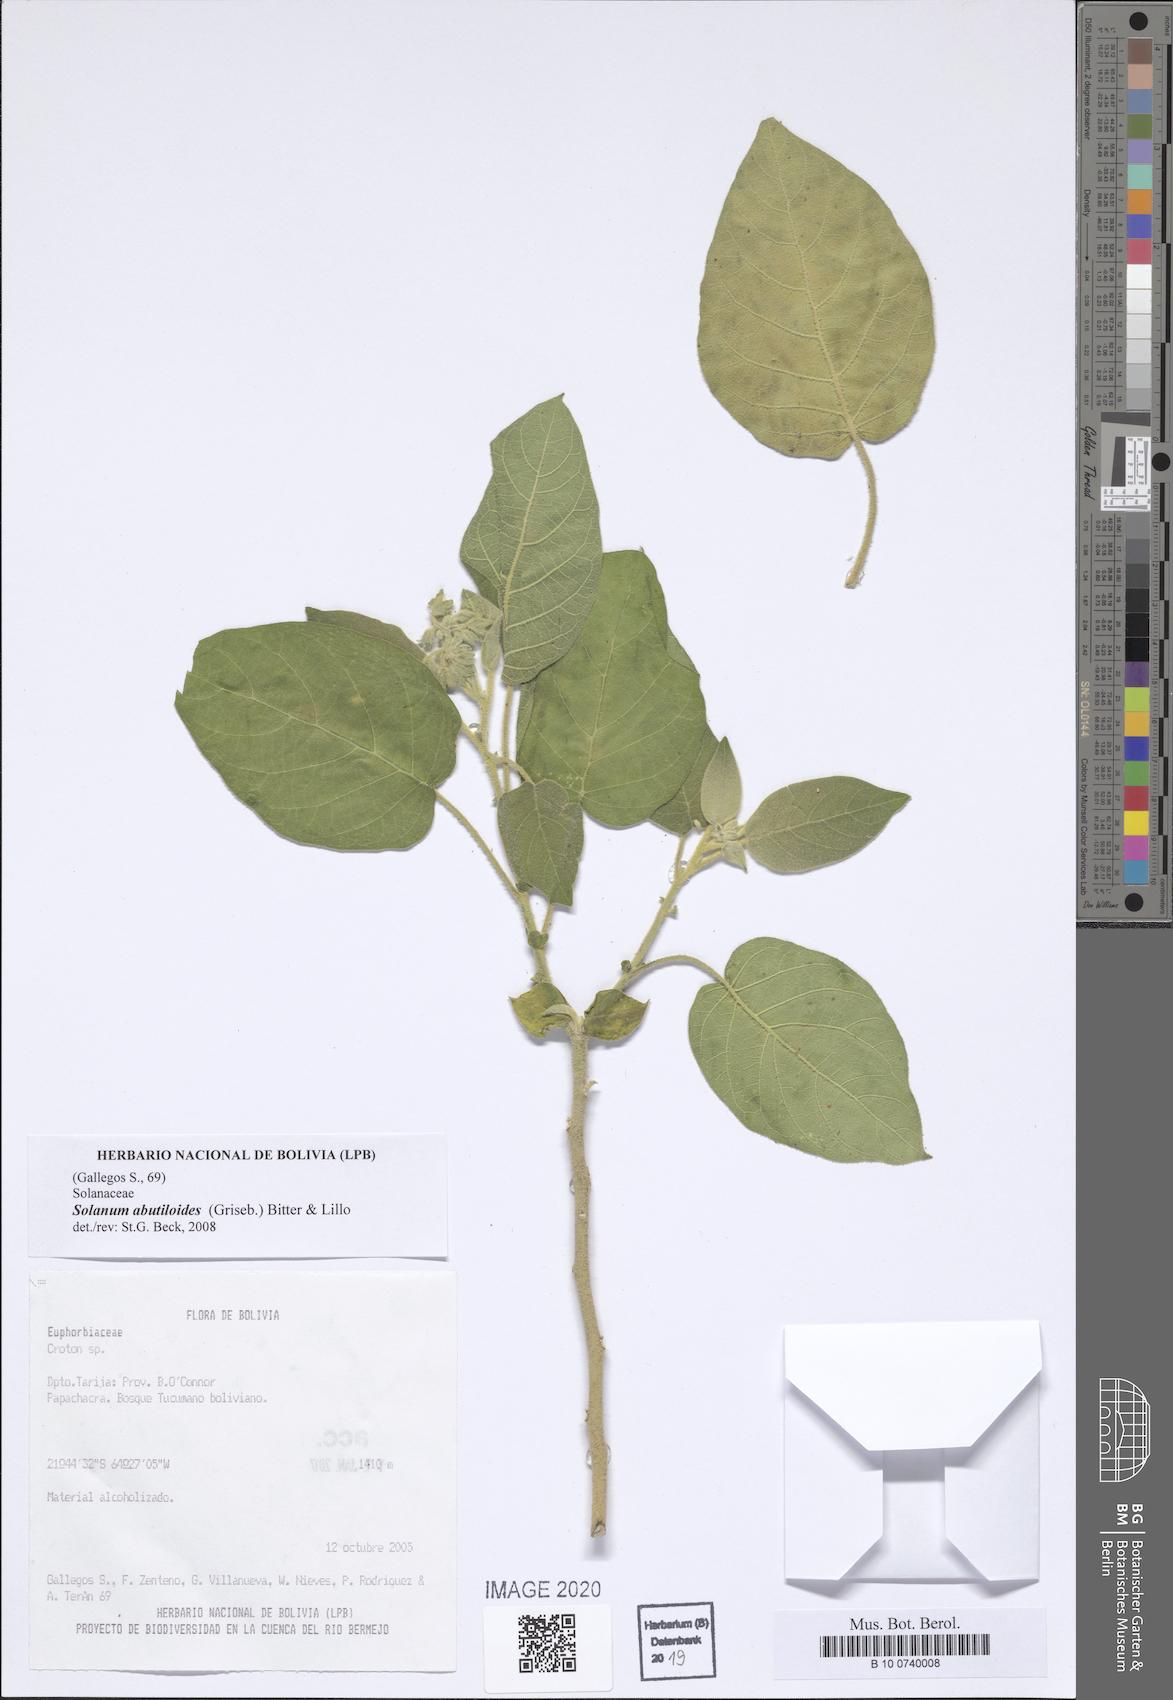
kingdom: Plantae
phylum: Tracheophyta
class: Magnoliopsida
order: Solanales
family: Solanaceae
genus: Solanum
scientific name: Solanum abutiloides
